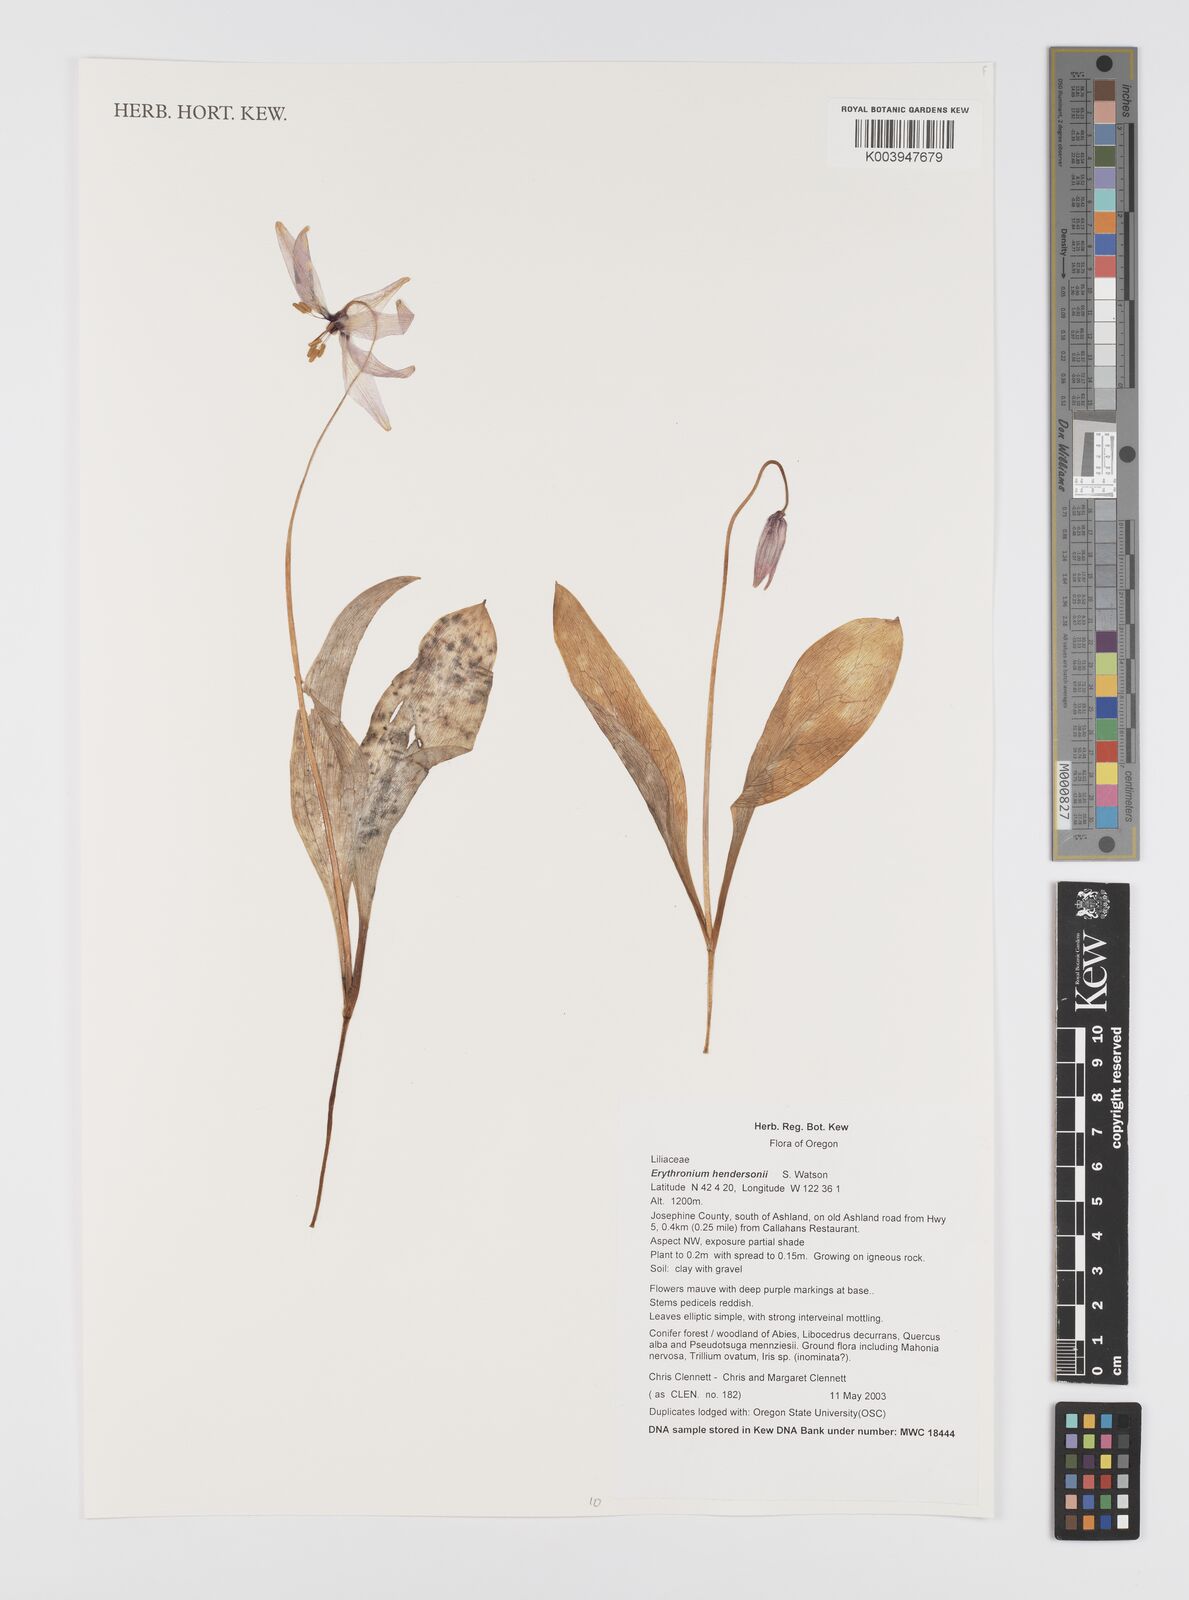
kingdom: Plantae
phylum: Tracheophyta
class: Liliopsida
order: Liliales
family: Liliaceae
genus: Erythronium
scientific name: Erythronium hendersonii
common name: Henderson's fawn-lily
